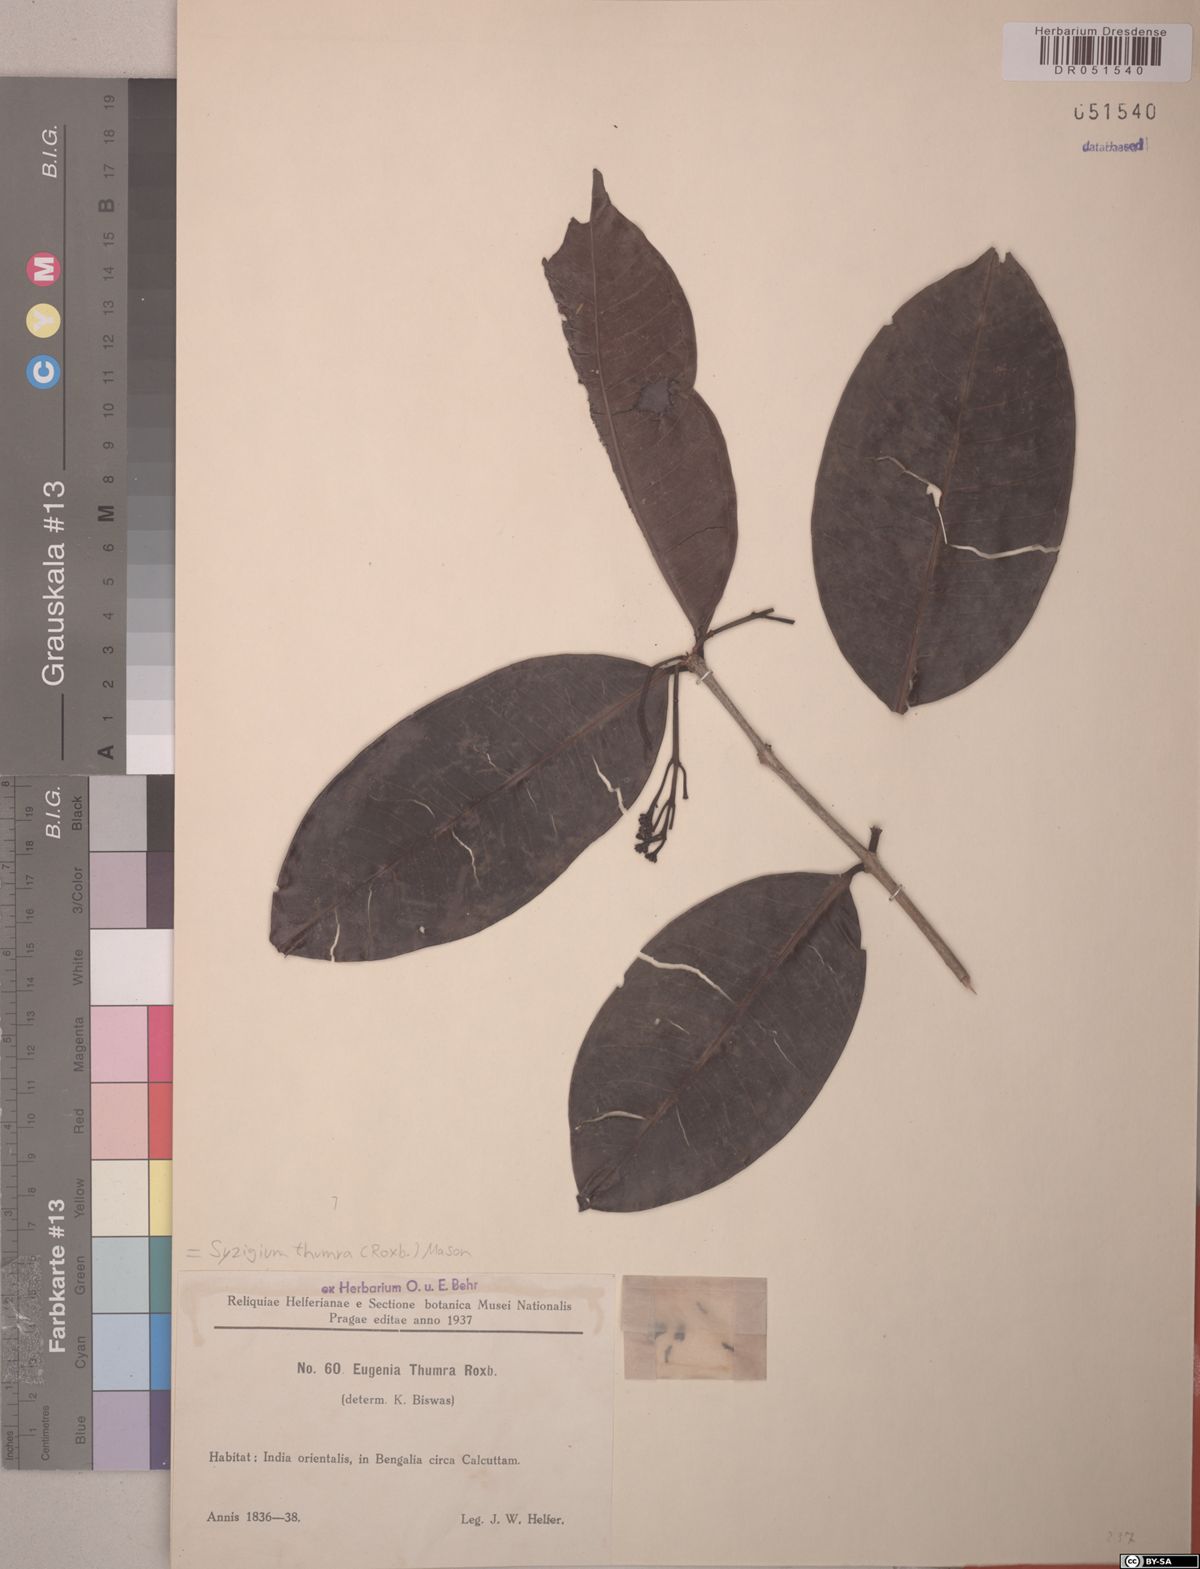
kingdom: Plantae
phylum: Tracheophyta
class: Magnoliopsida
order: Myrtales
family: Myrtaceae
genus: Syzygium
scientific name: Syzygium thumra
